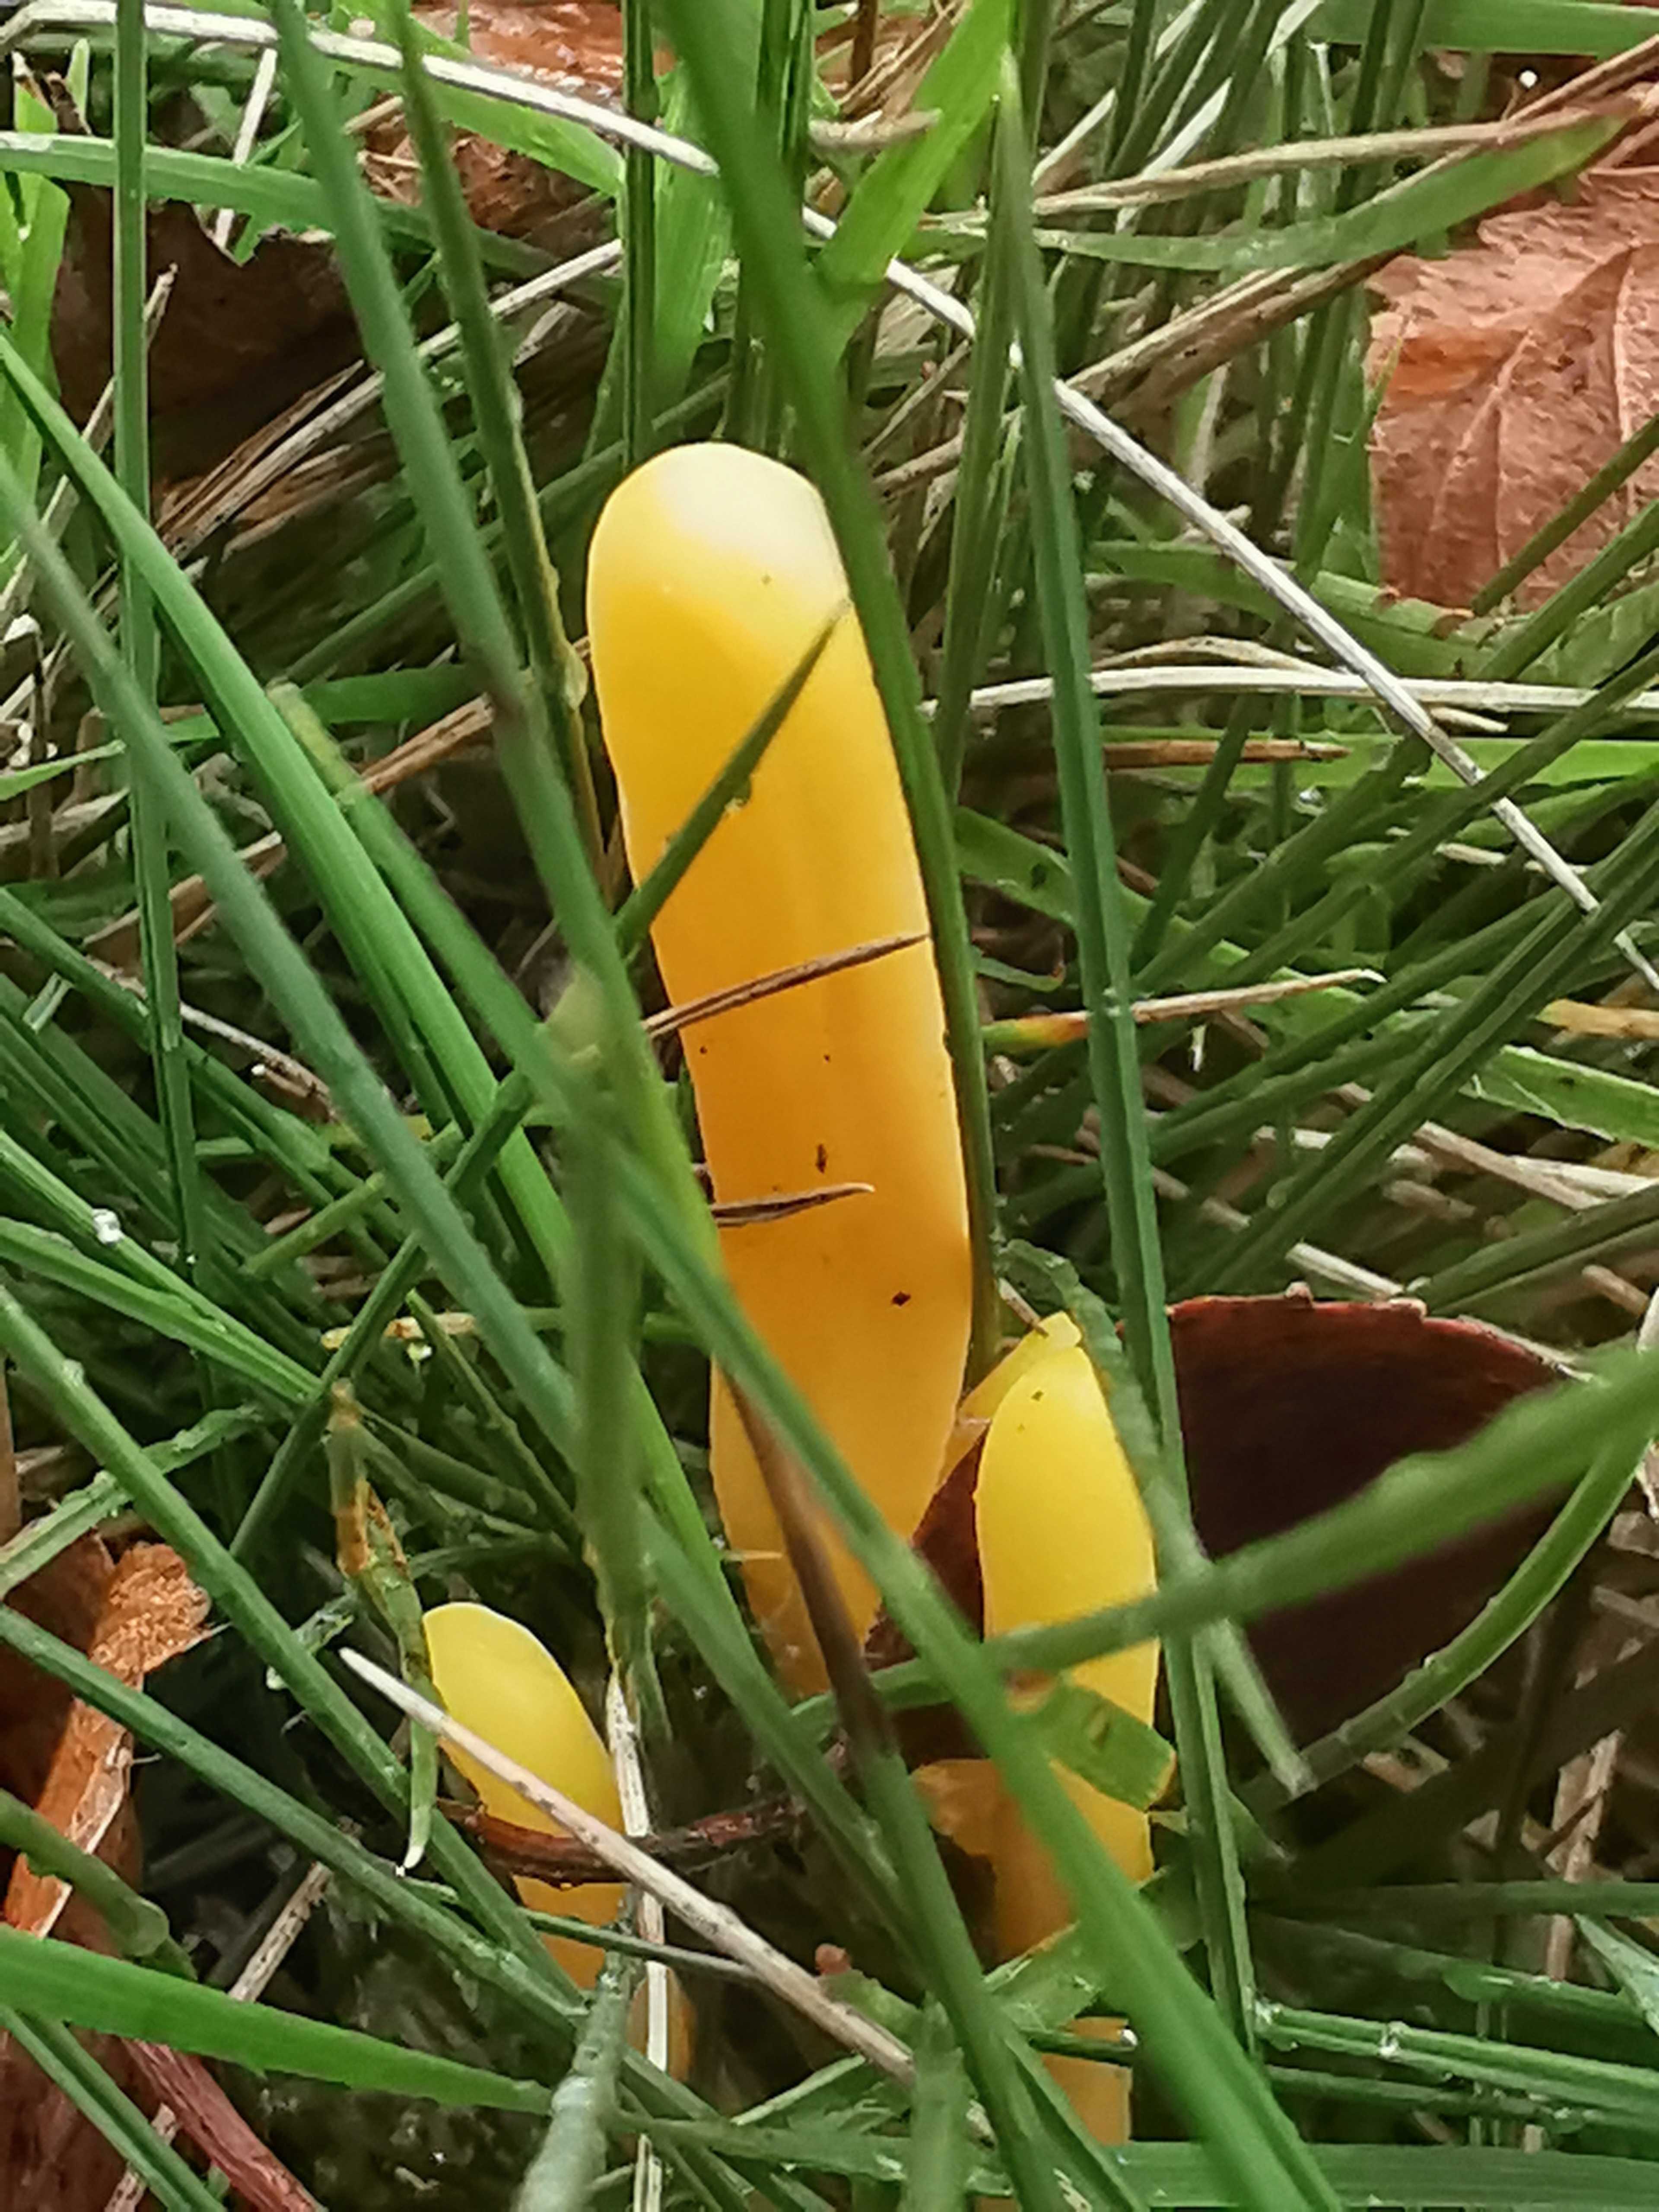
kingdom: Fungi
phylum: Basidiomycota
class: Agaricomycetes
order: Agaricales
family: Clavariaceae
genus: Clavulinopsis
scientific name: Clavulinopsis
